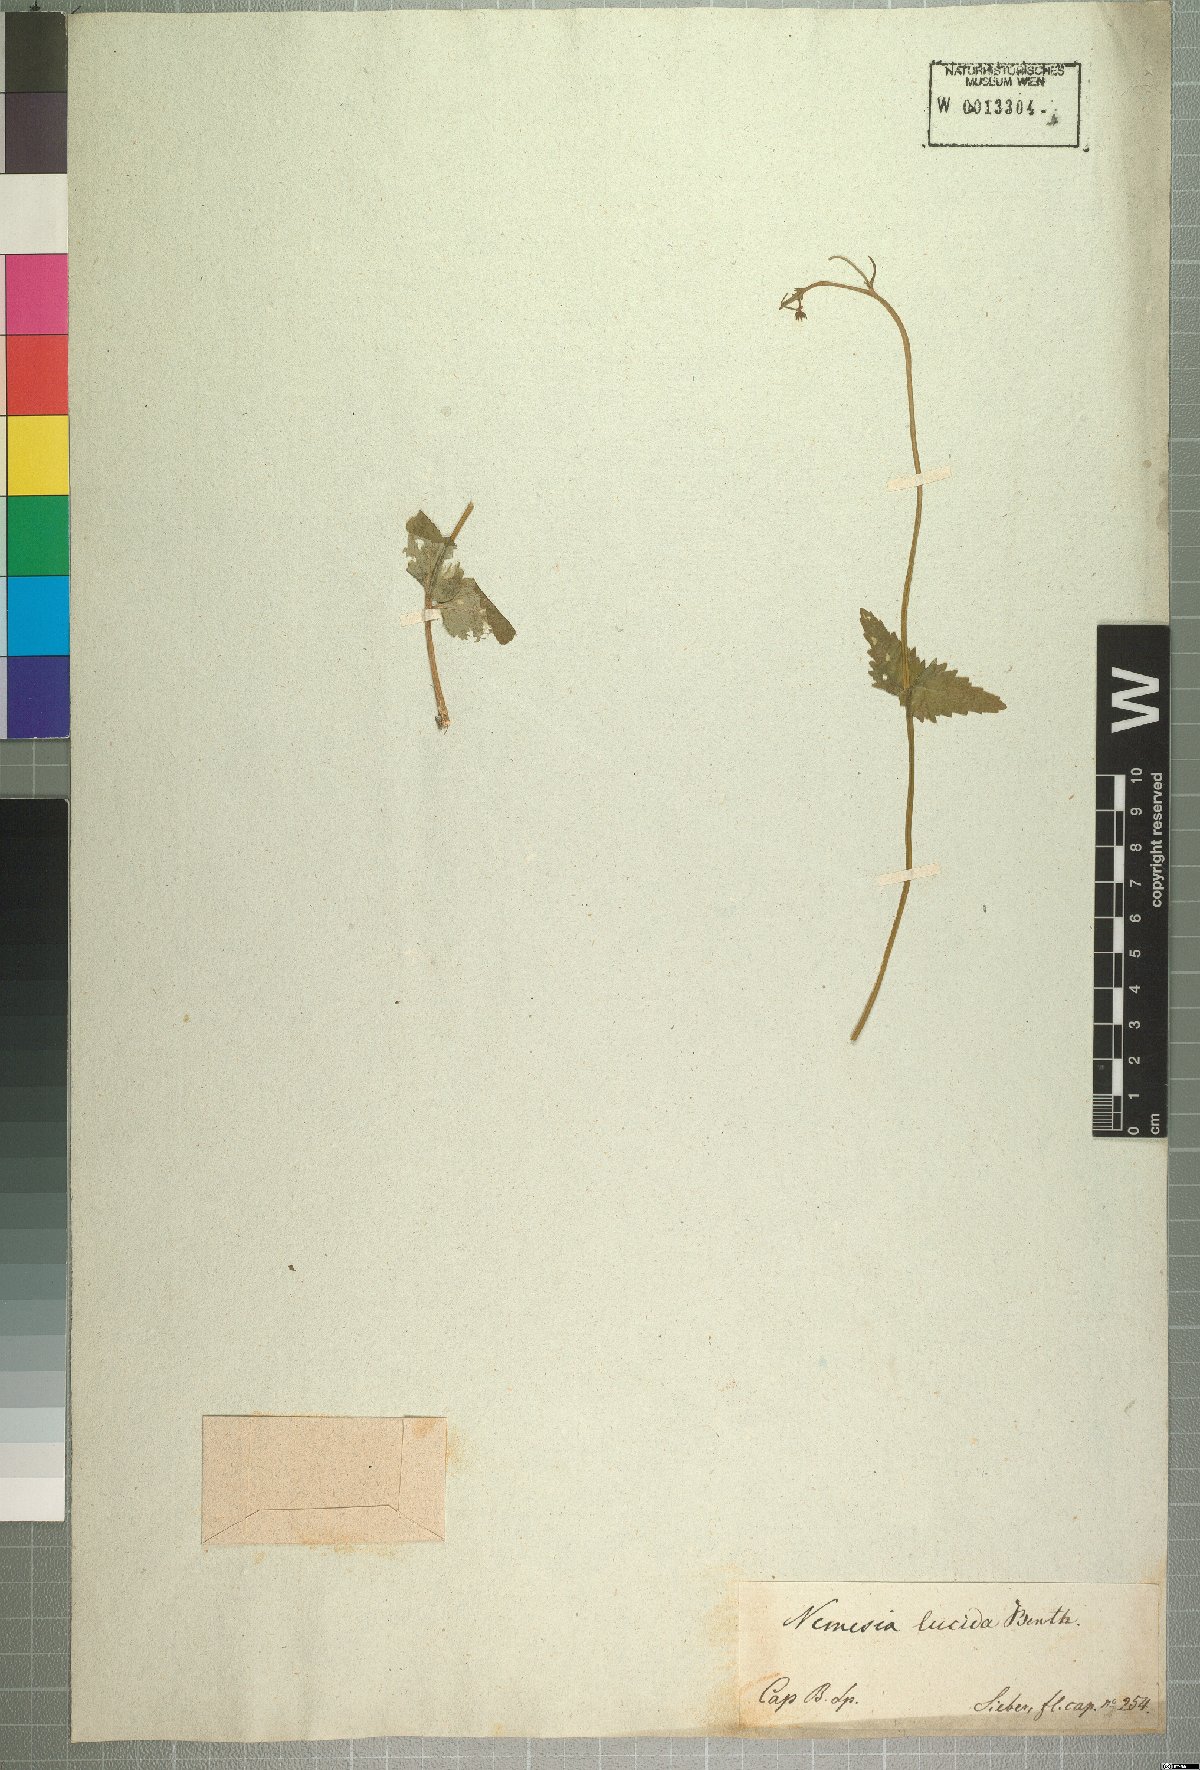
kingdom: Plantae
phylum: Tracheophyta
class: Magnoliopsida
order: Lamiales
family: Scrophulariaceae
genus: Nemesia
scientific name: Nemesia lucida
